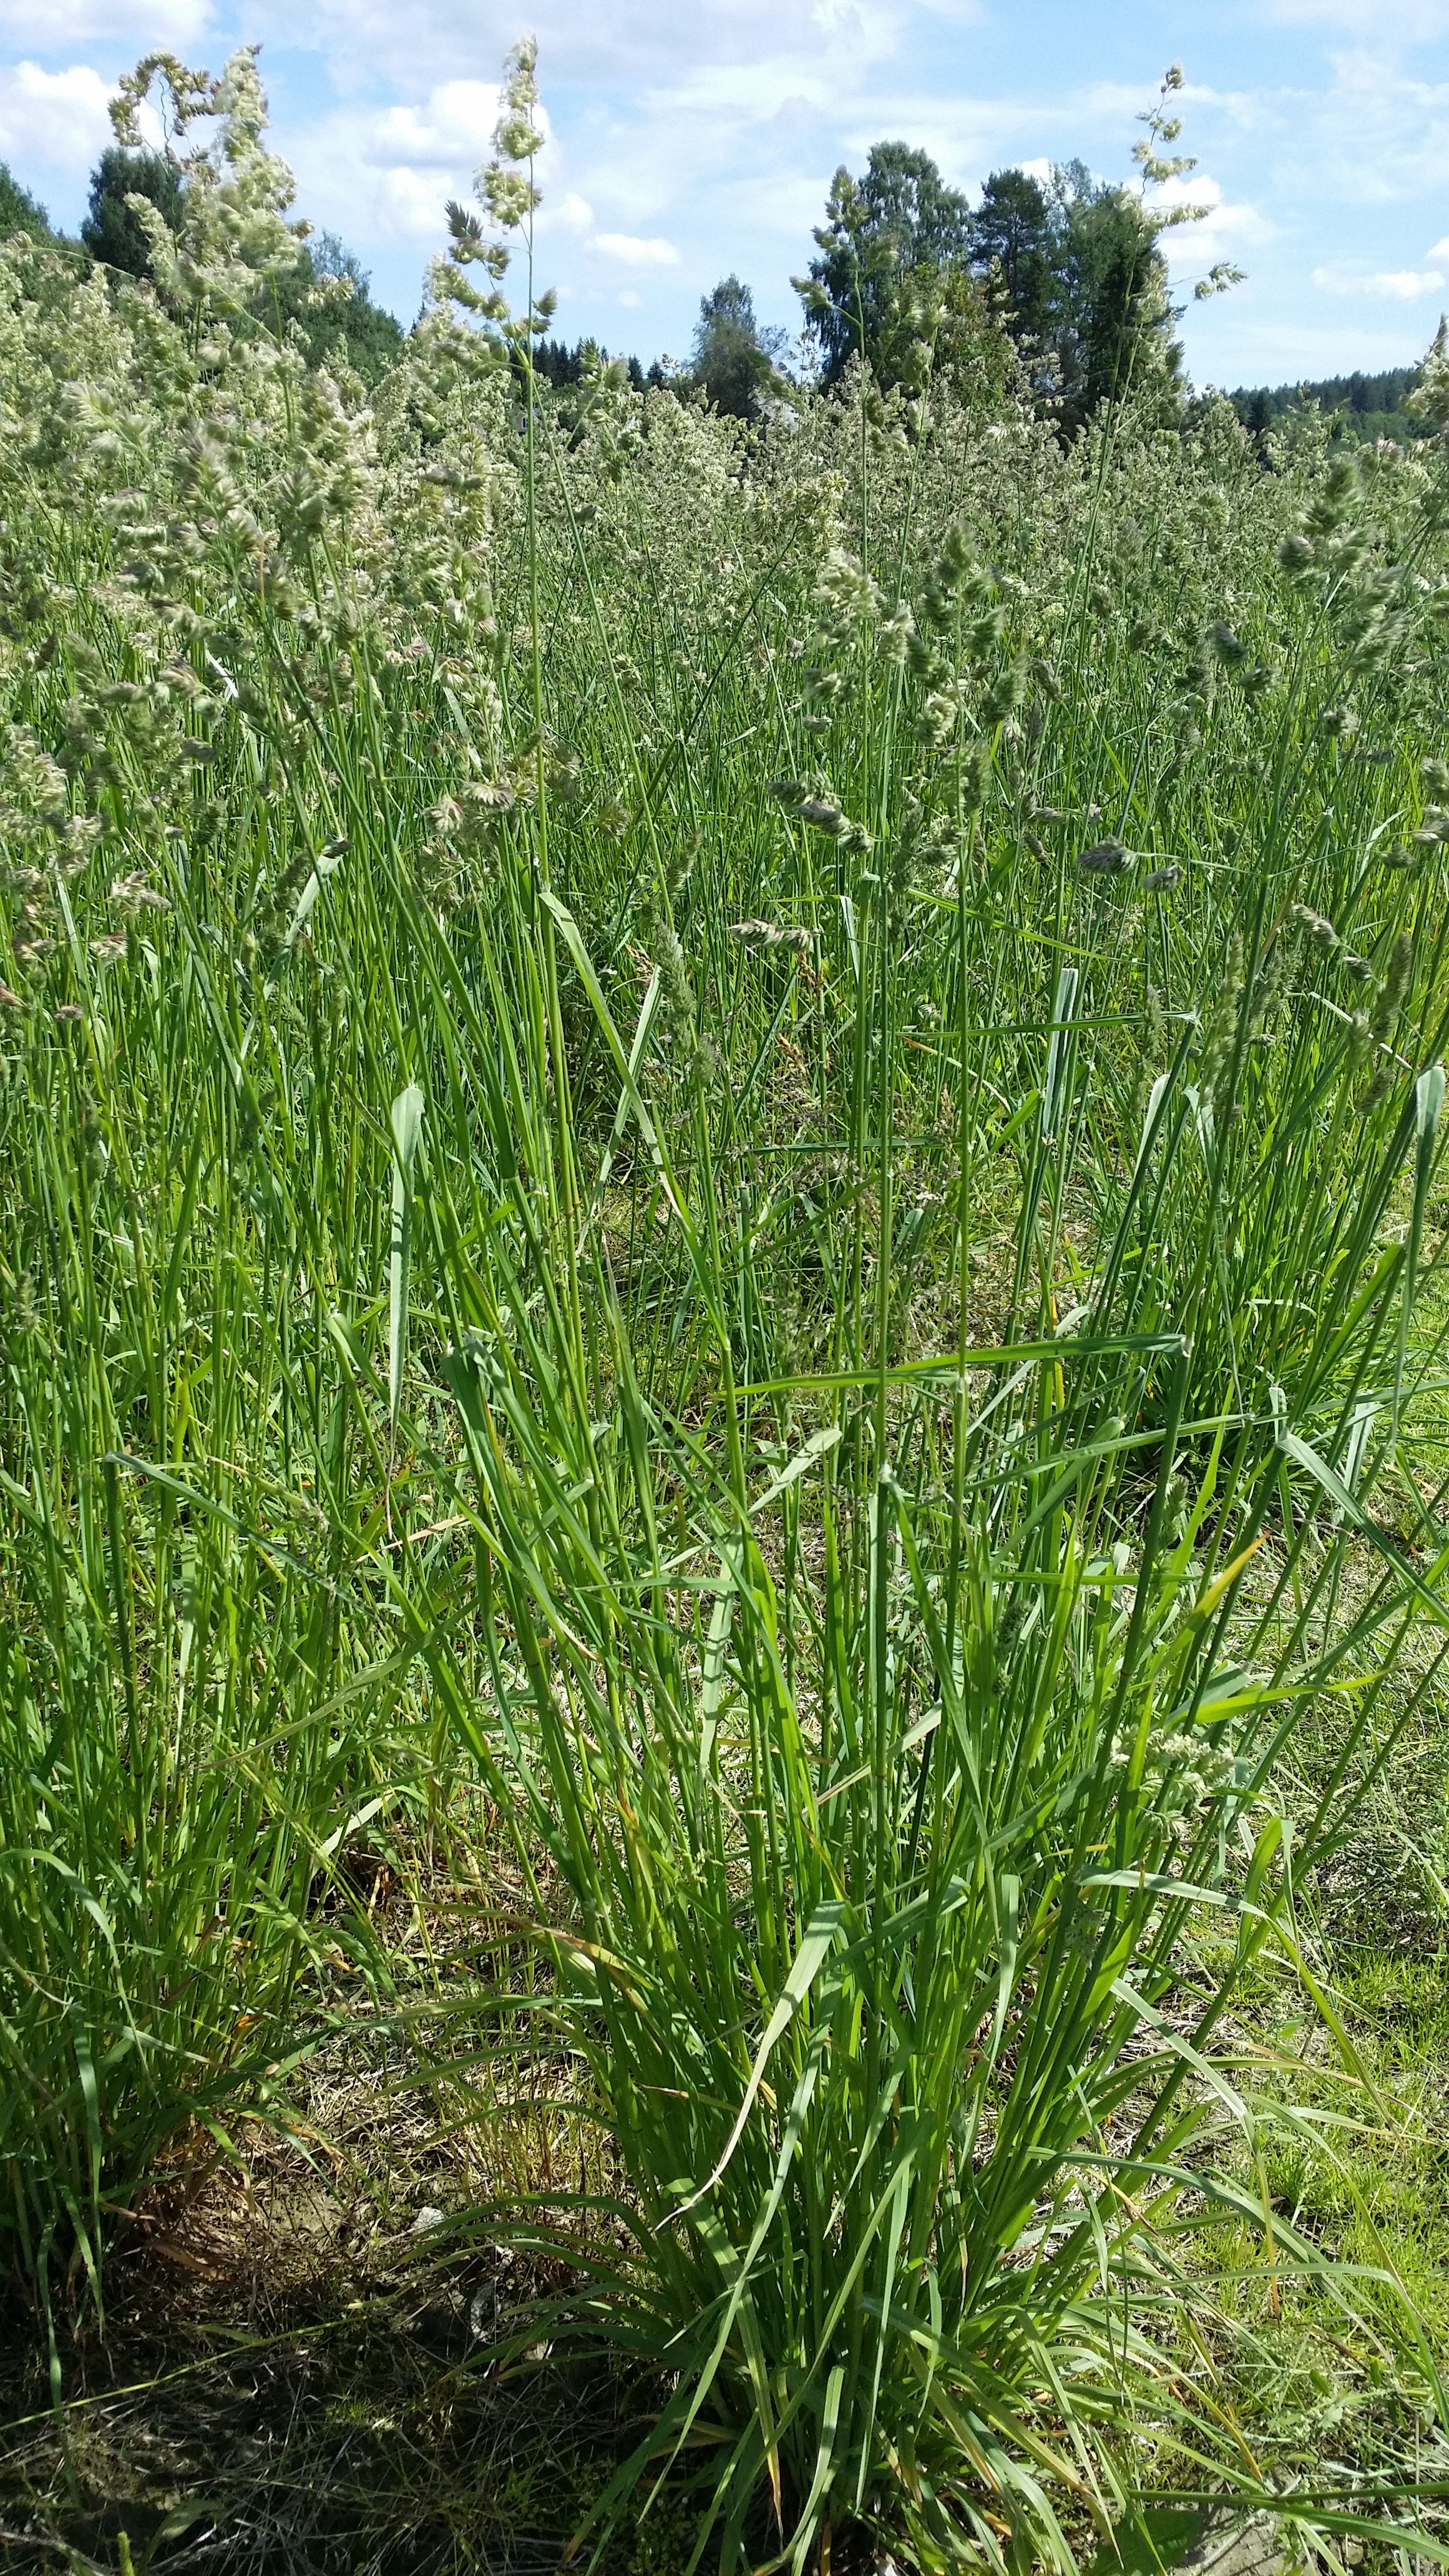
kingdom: Plantae
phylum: Tracheophyta
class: Liliopsida
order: Poales
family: Poaceae
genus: Dactylis
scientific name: Dactylis glomerata
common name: Orchardgrass
